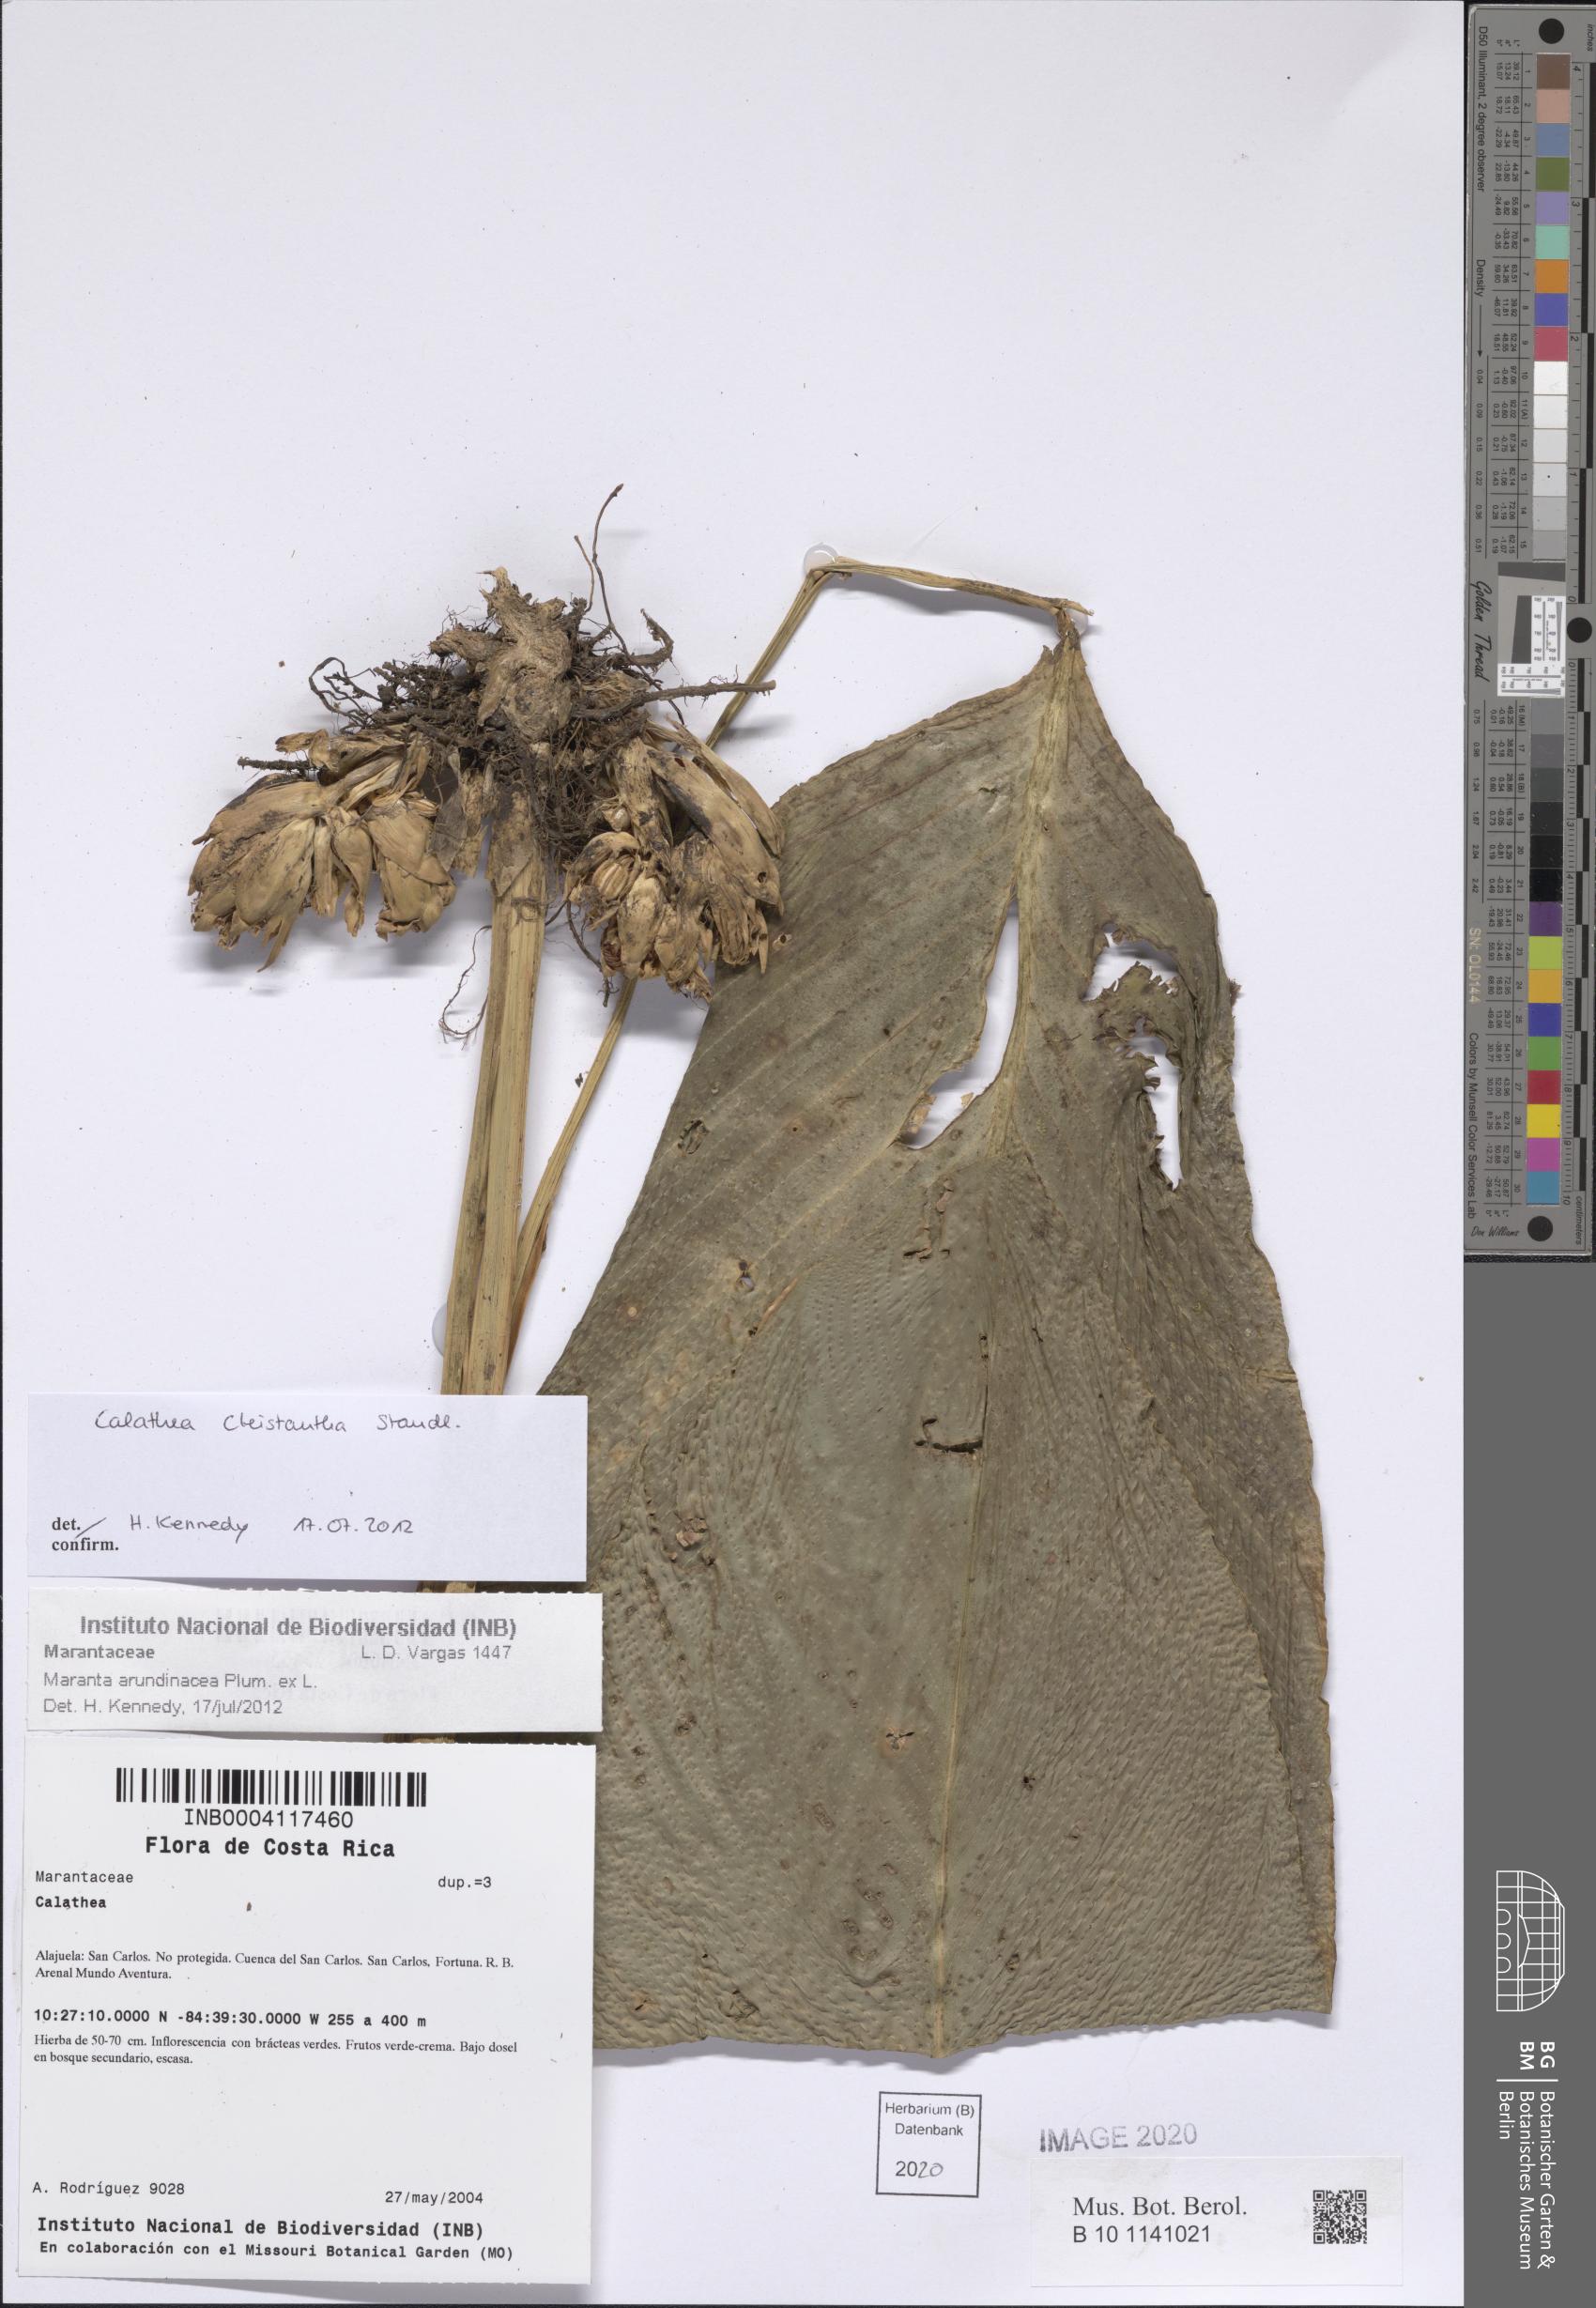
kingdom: Plantae
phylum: Tracheophyta
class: Liliopsida
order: Zingiberales
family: Marantaceae
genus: Goeppertia
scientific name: Goeppertia cleistantha
